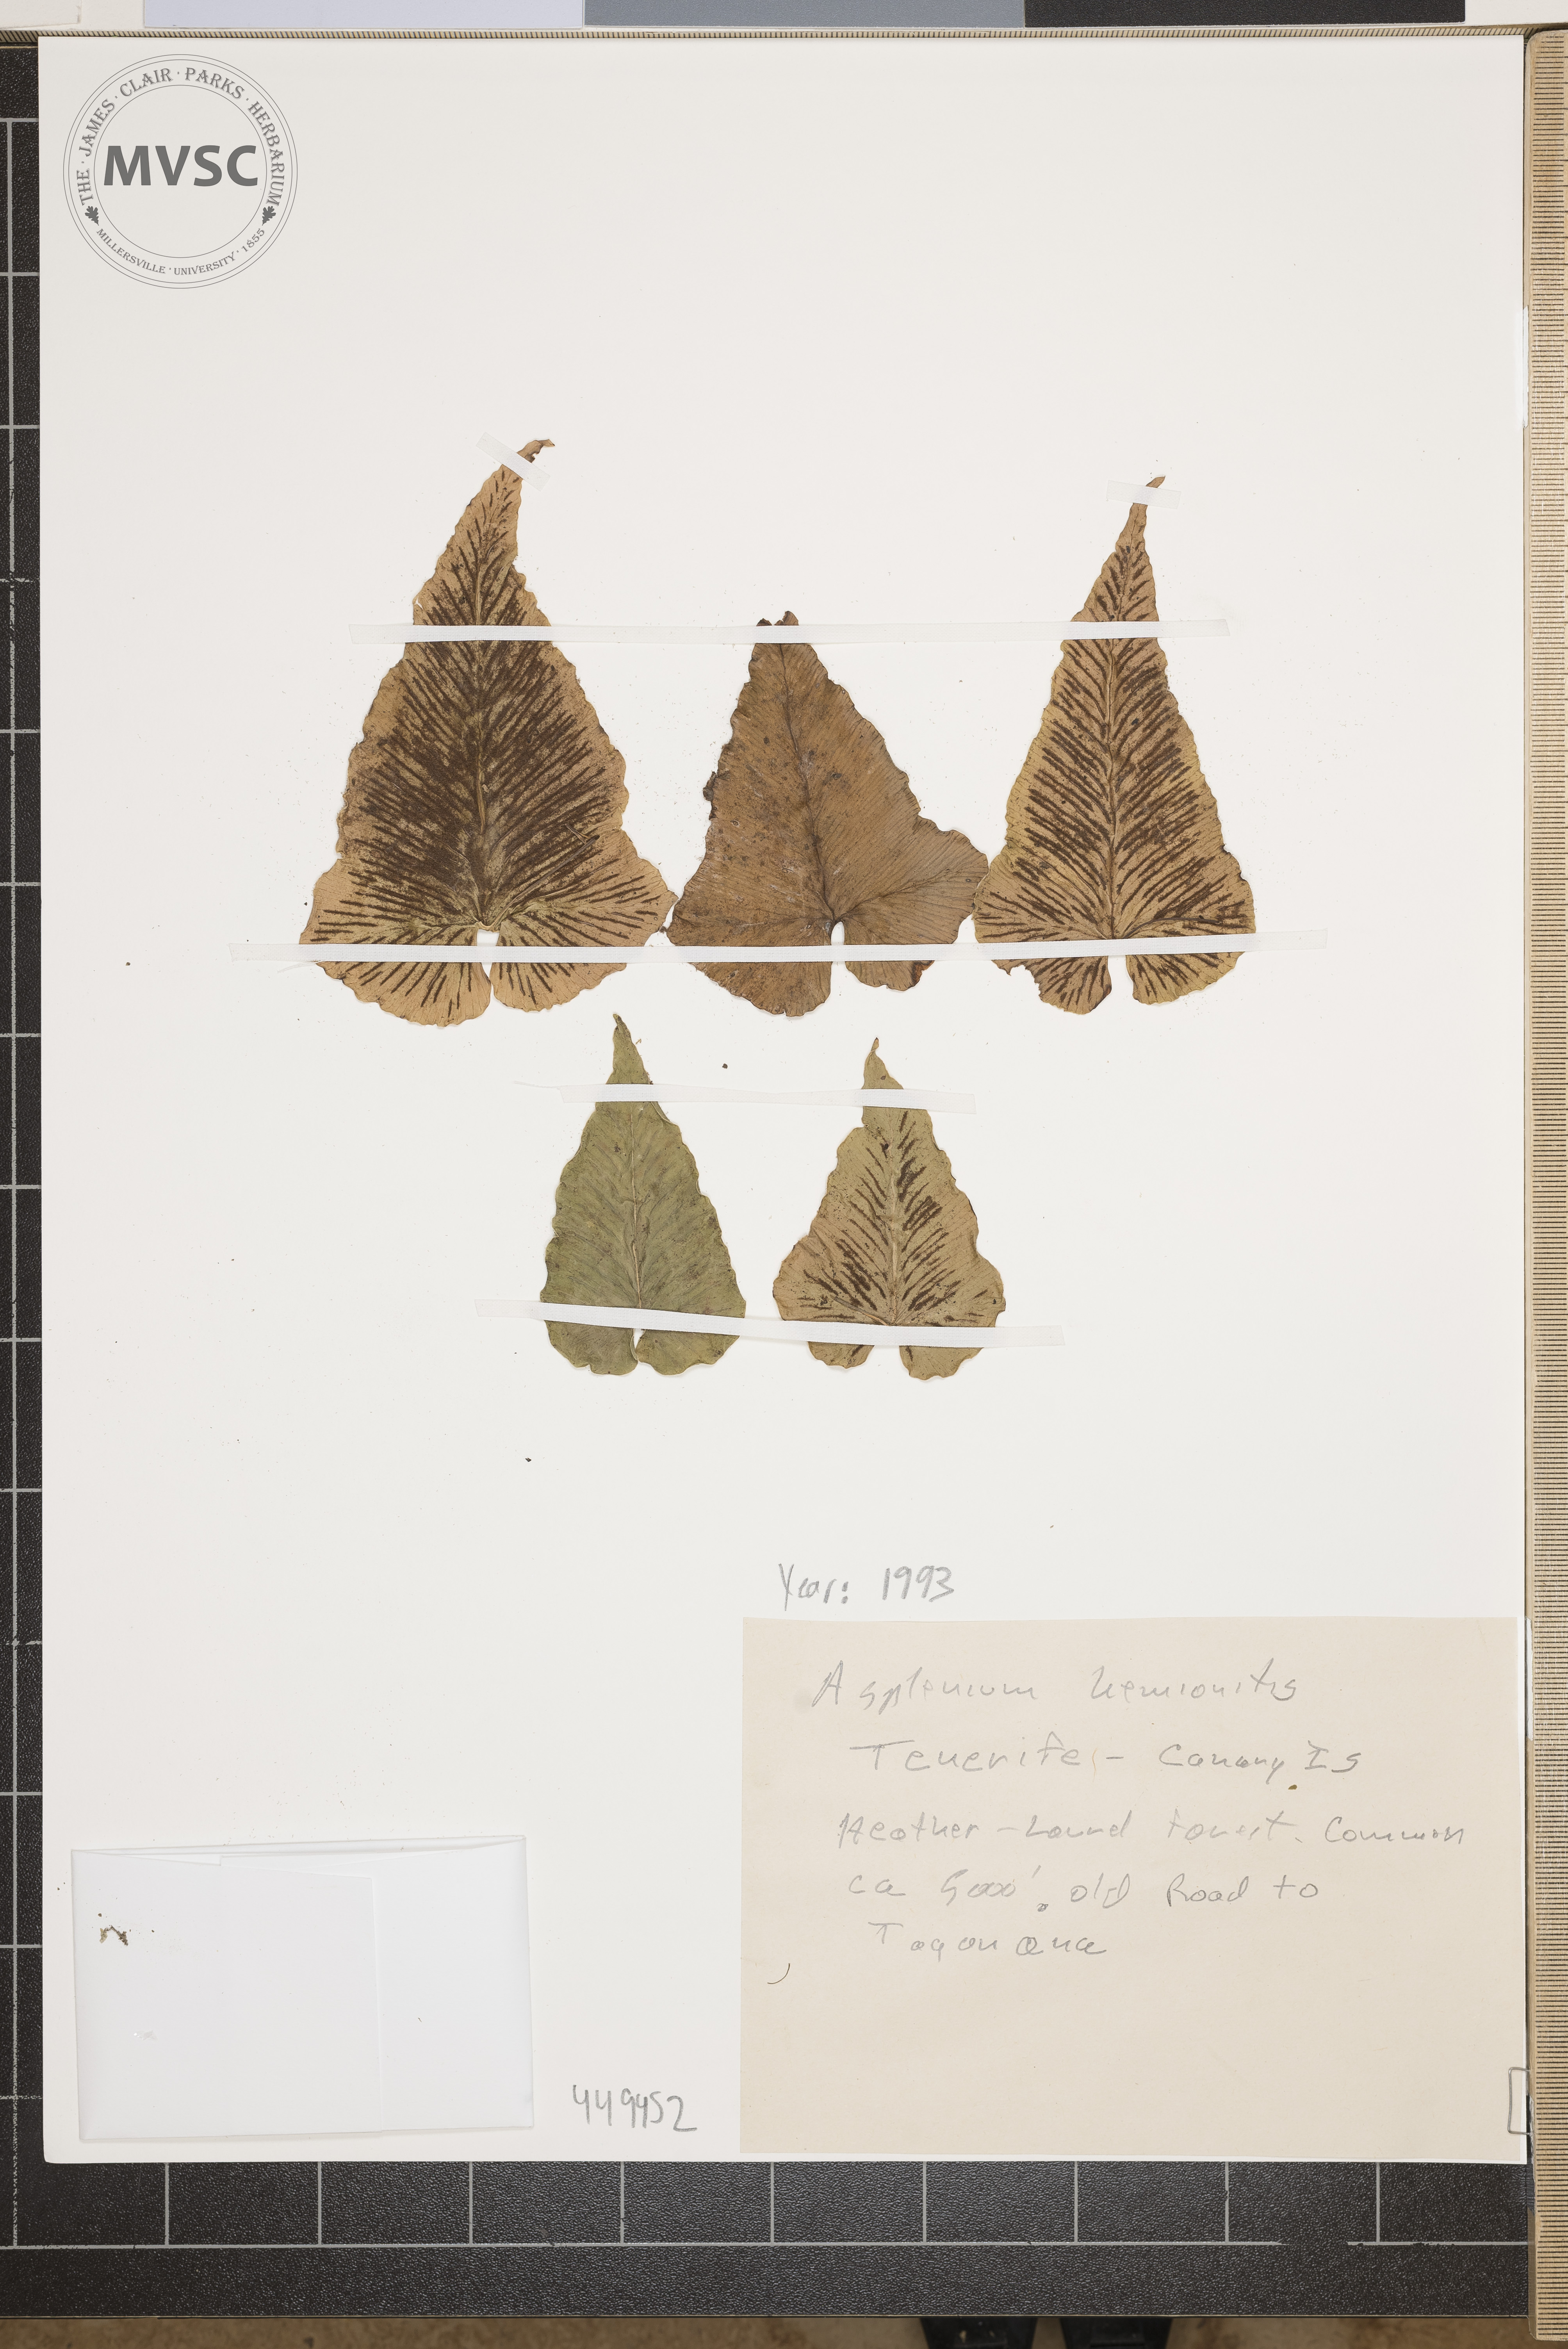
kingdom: Plantae
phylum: Tracheophyta
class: Polypodiopsida
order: Polypodiales
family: Aspleniaceae
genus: Asplenium
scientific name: Asplenium hemionitis
